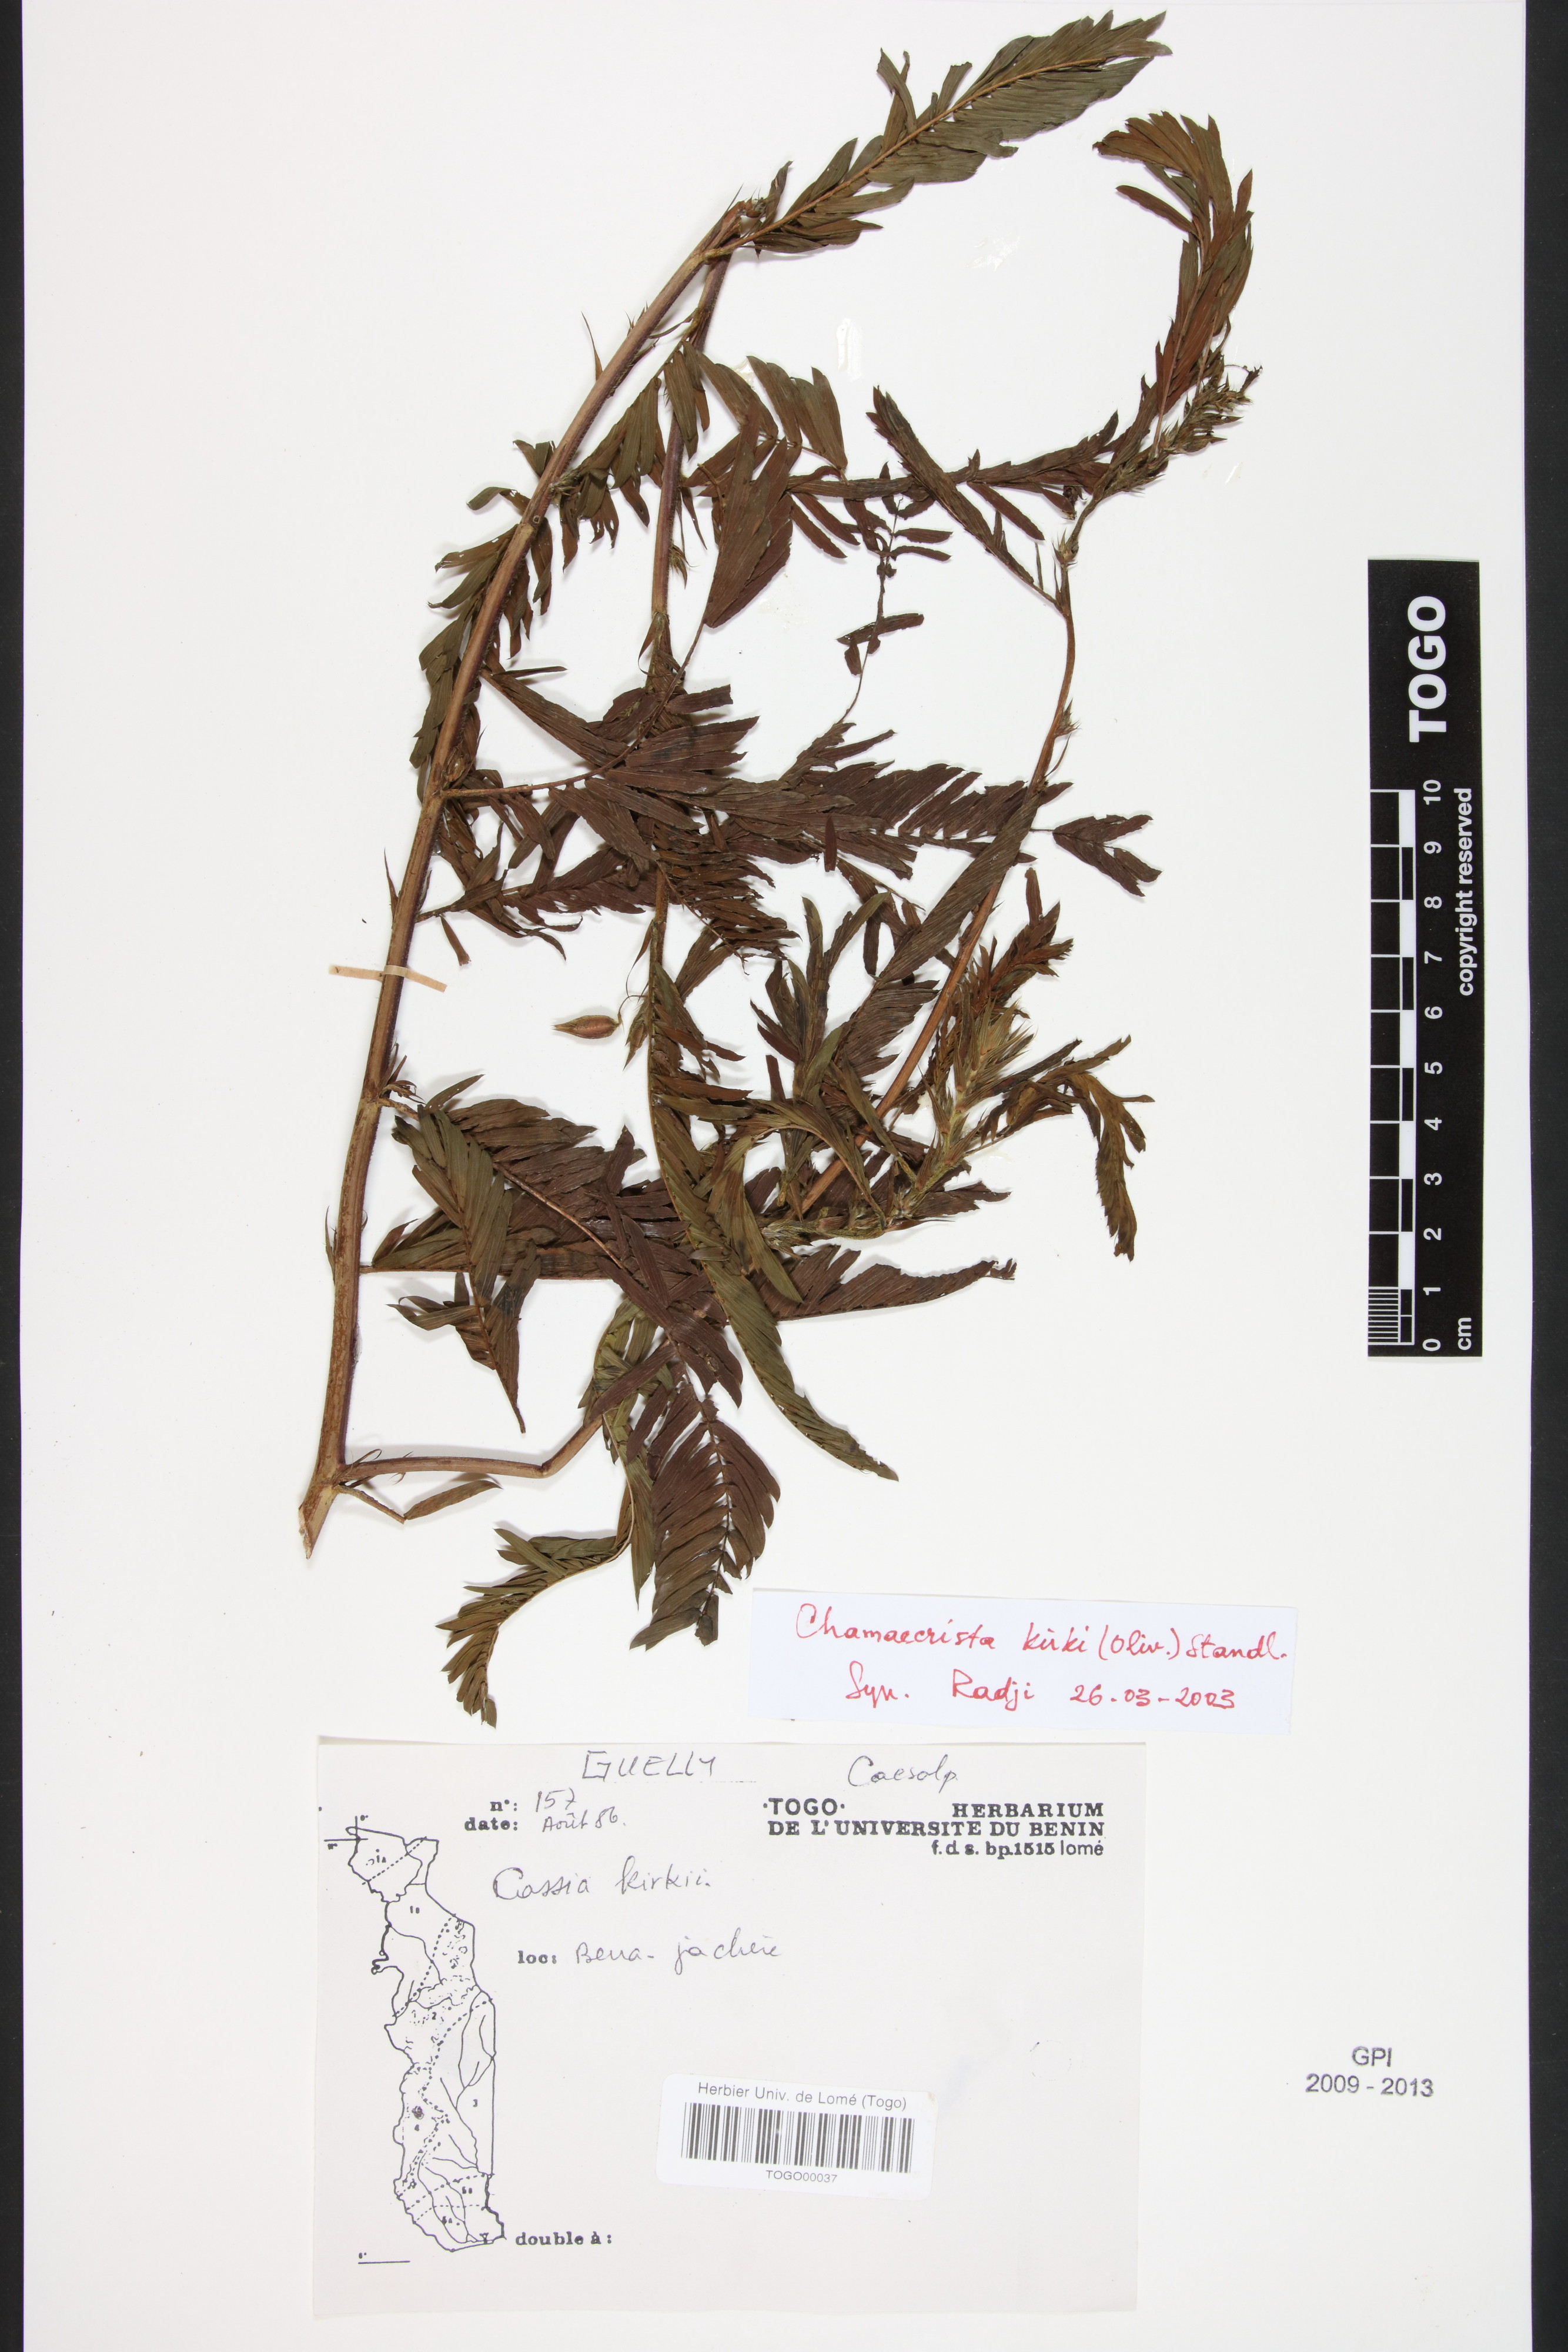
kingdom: Plantae
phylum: Tracheophyta
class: Magnoliopsida
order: Fabales
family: Fabaceae
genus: Chamaecrista
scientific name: Chamaecrista kirkii
